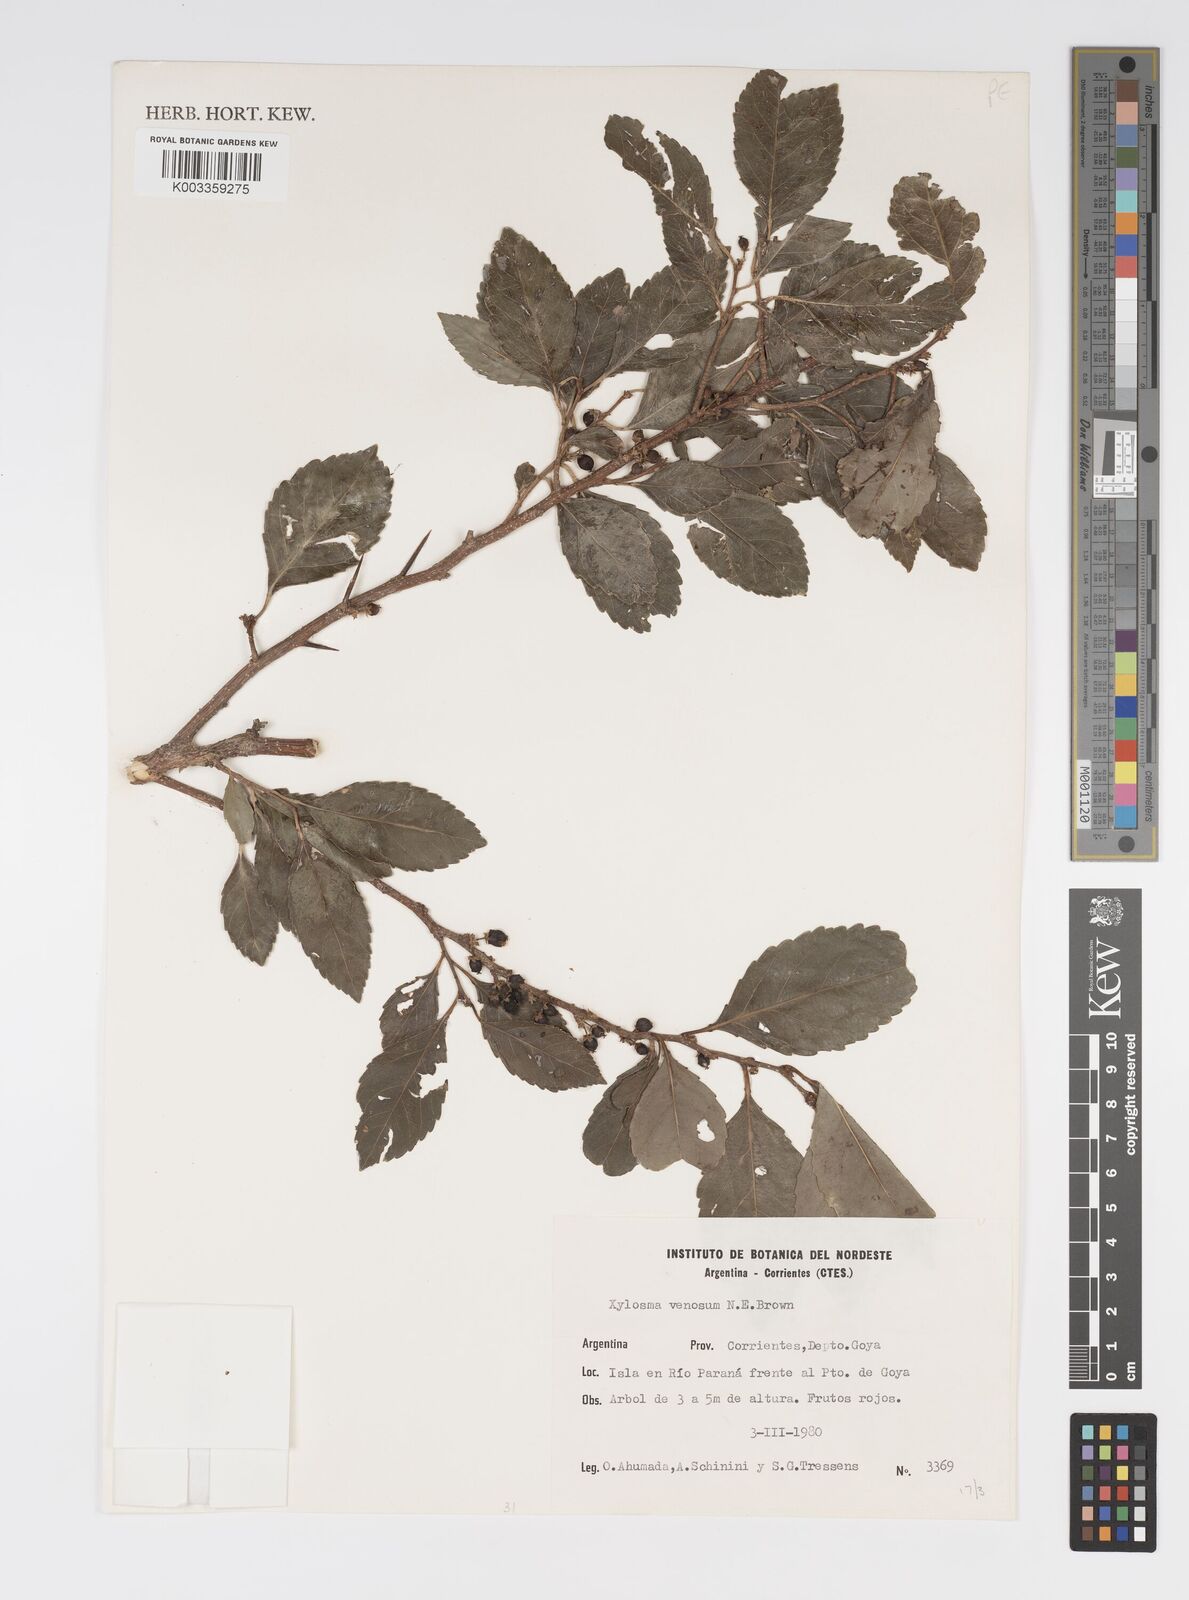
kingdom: Plantae
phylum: Tracheophyta
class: Magnoliopsida
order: Malpighiales
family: Salicaceae
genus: Xylosma
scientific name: Xylosma venosa
